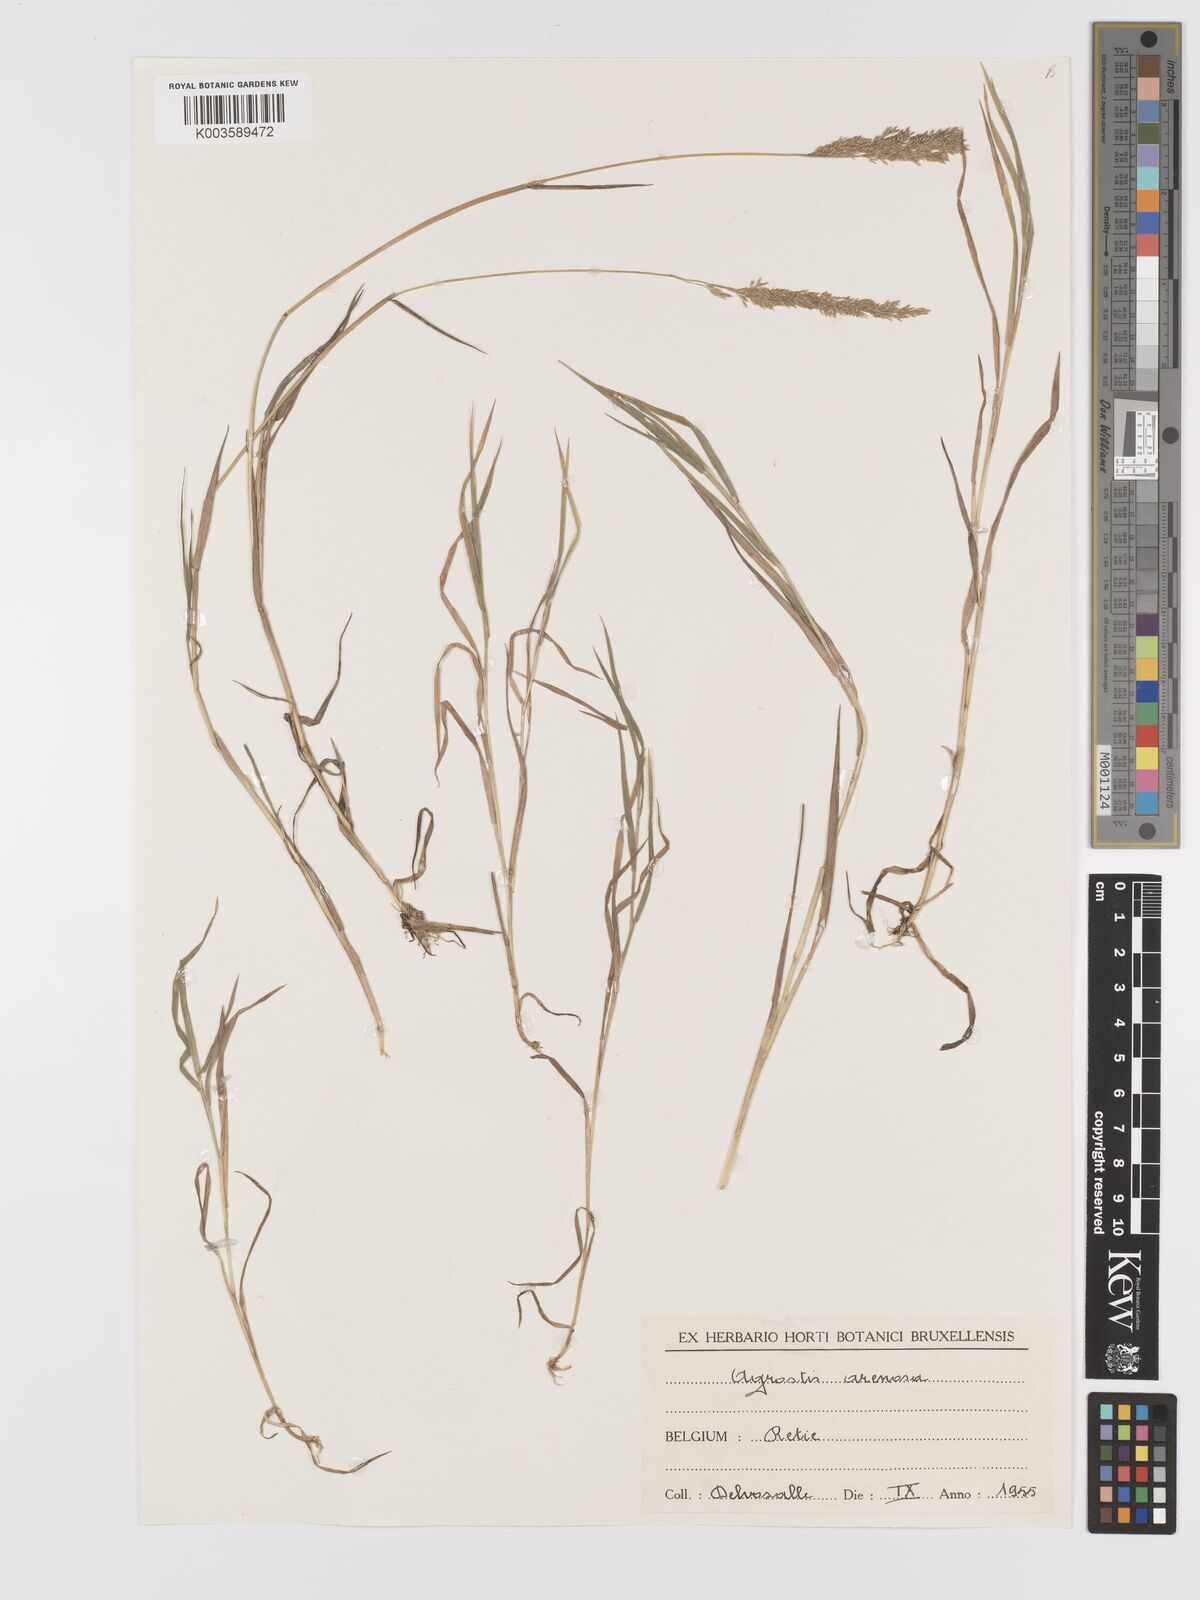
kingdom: Plantae
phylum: Tracheophyta
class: Liliopsida
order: Poales
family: Poaceae
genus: Agrostis
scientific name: Agrostis canina
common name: Velvet bent
